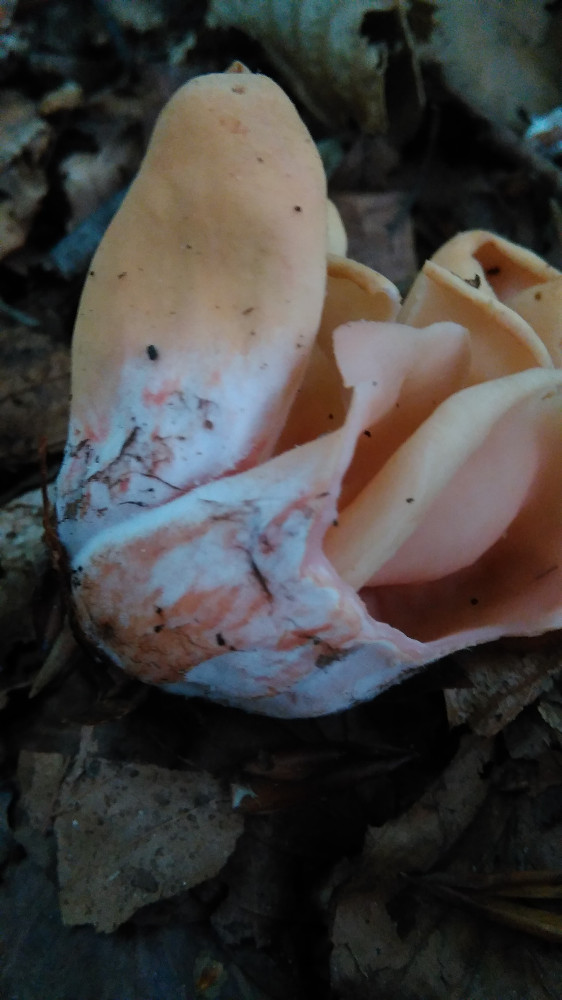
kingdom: Fungi
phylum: Ascomycota
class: Pezizomycetes
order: Pezizales
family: Otideaceae
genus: Otidea
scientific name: Otidea onotica
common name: æsel-ørebæger
